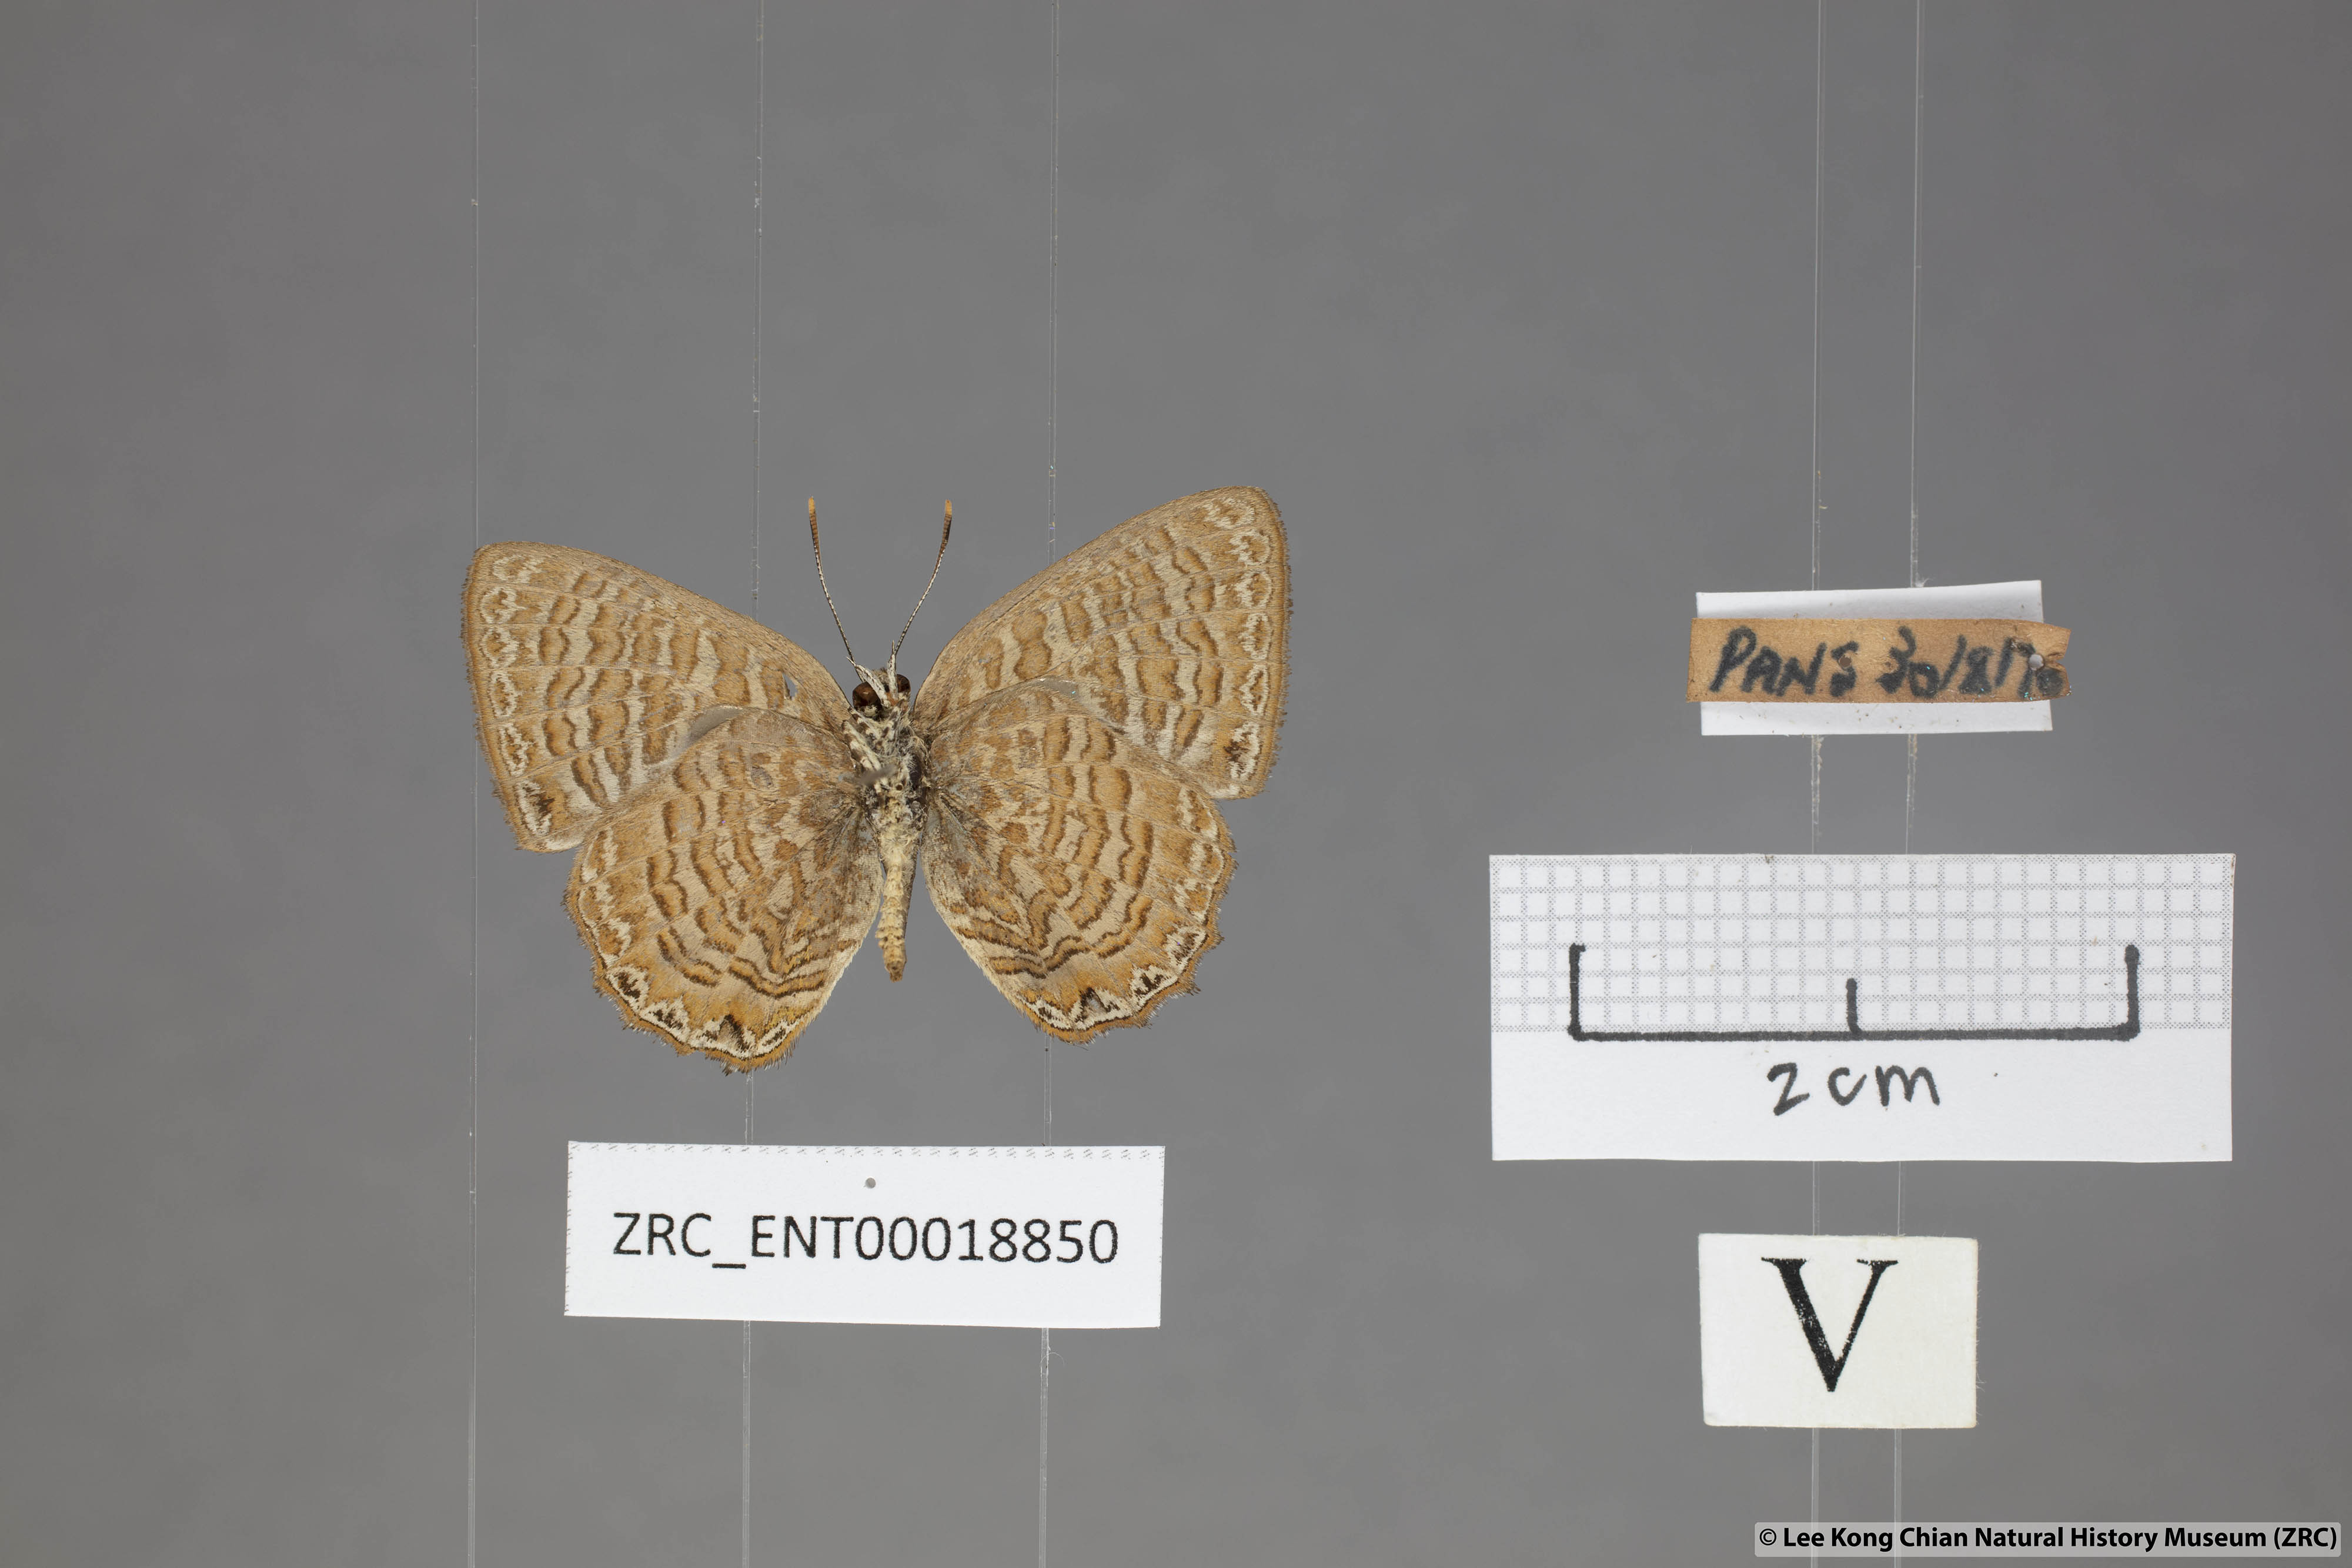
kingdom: Animalia
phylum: Arthropoda
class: Insecta
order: Lepidoptera
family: Lycaenidae
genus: Poritia
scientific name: Poritia sumatrae
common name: Sumatran gem
